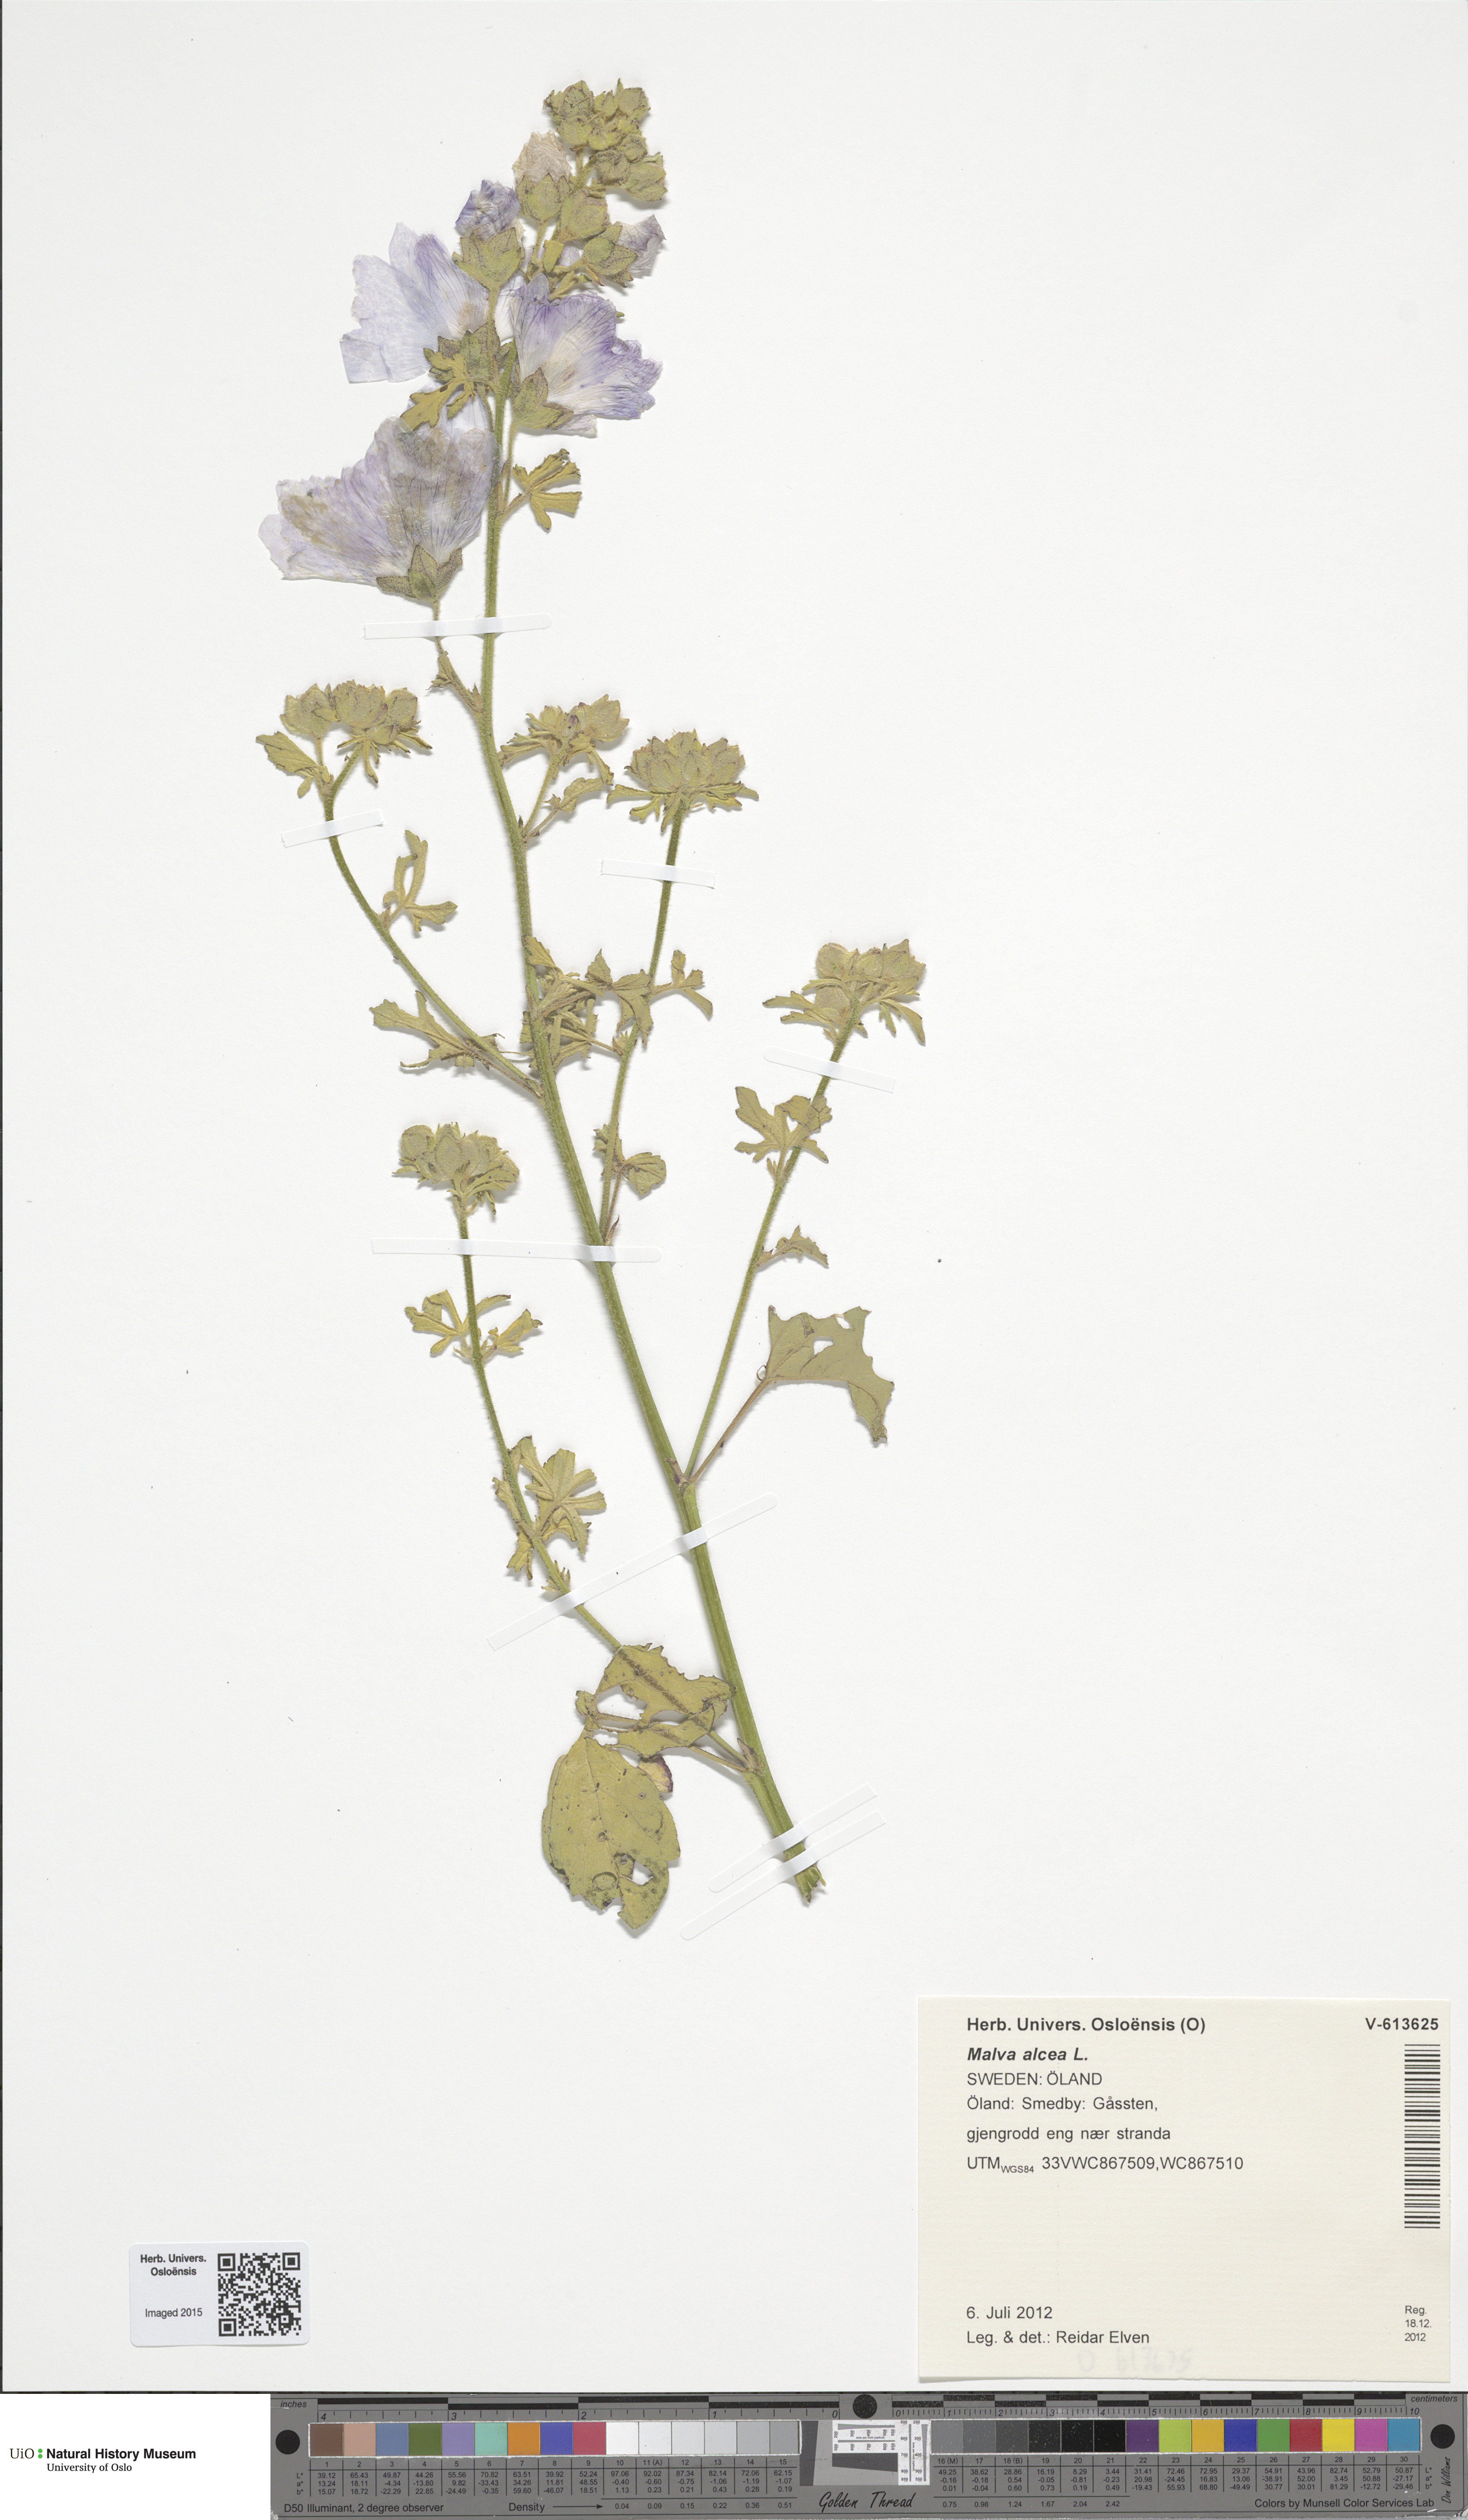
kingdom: Plantae
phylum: Tracheophyta
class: Magnoliopsida
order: Malvales
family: Malvaceae
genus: Malva
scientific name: Malva alcea
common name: Greater musk-mallow
